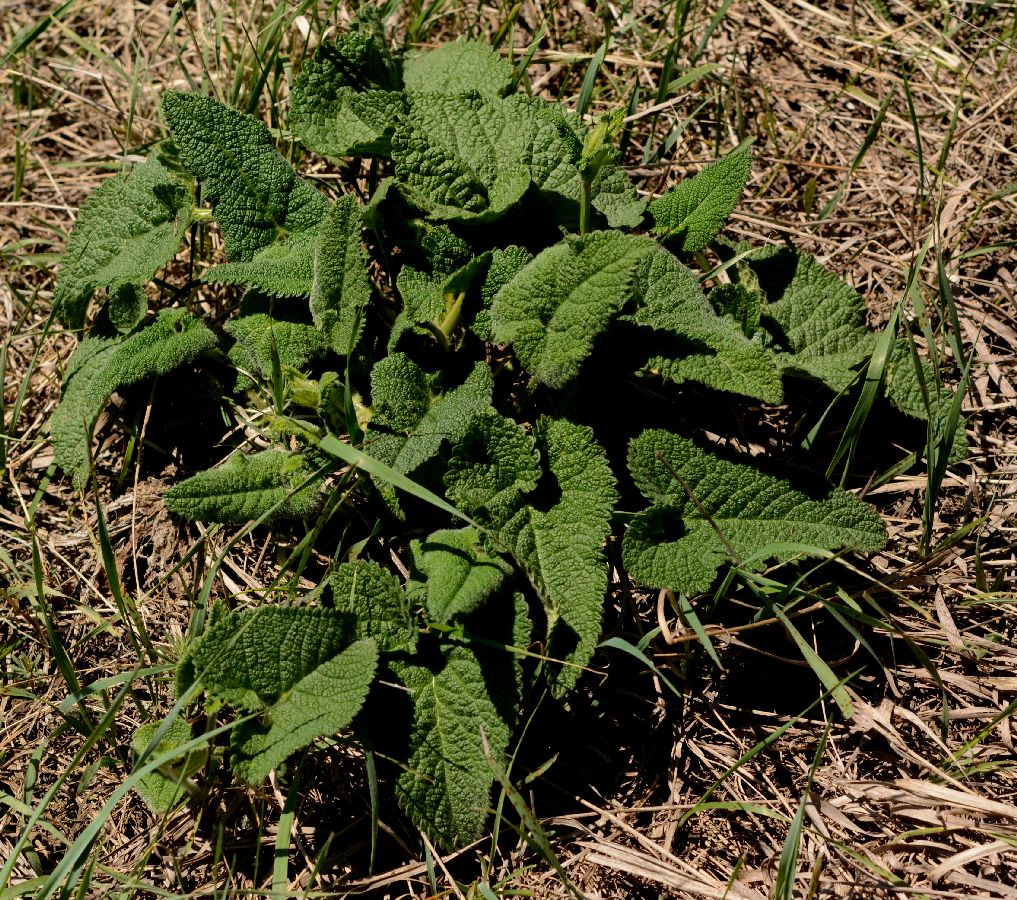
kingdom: Plantae
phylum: Tracheophyta
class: Magnoliopsida
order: Lamiales
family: Lamiaceae
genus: Phlomoides
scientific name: Phlomoides tuberosa
